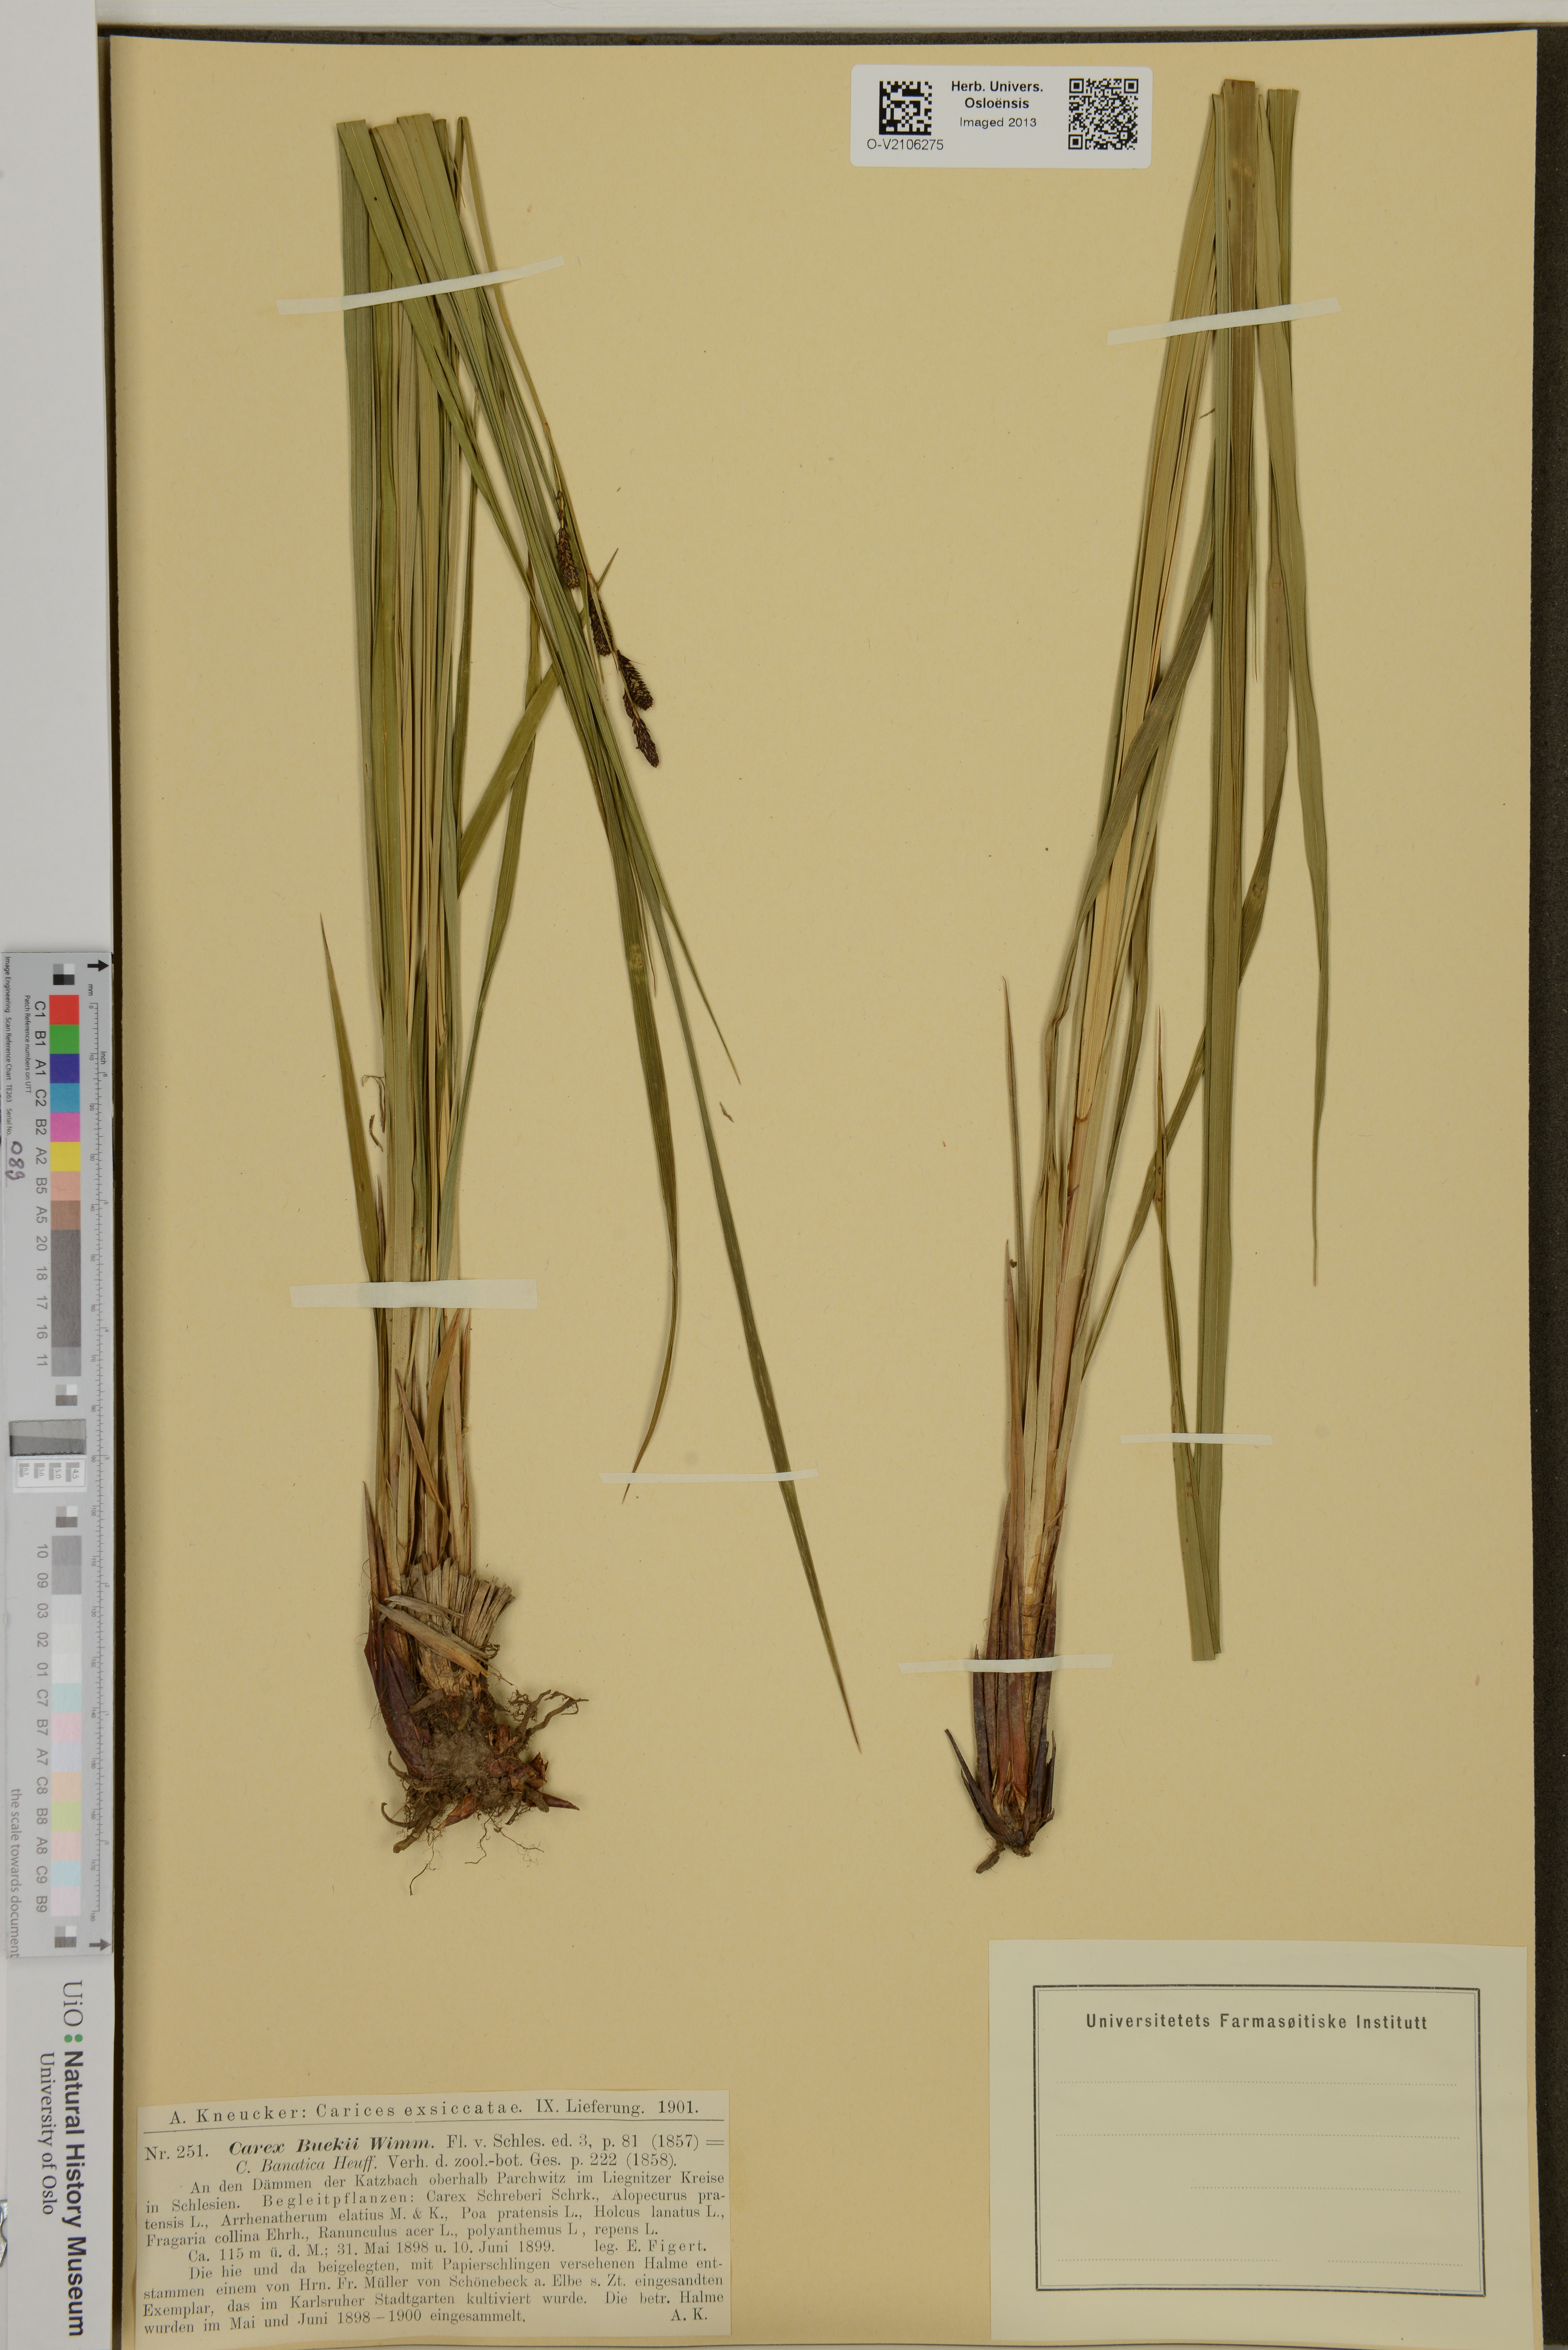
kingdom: Plantae
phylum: Tracheophyta
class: Liliopsida
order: Poales
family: Cyperaceae
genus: Carex
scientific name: Carex buekii
